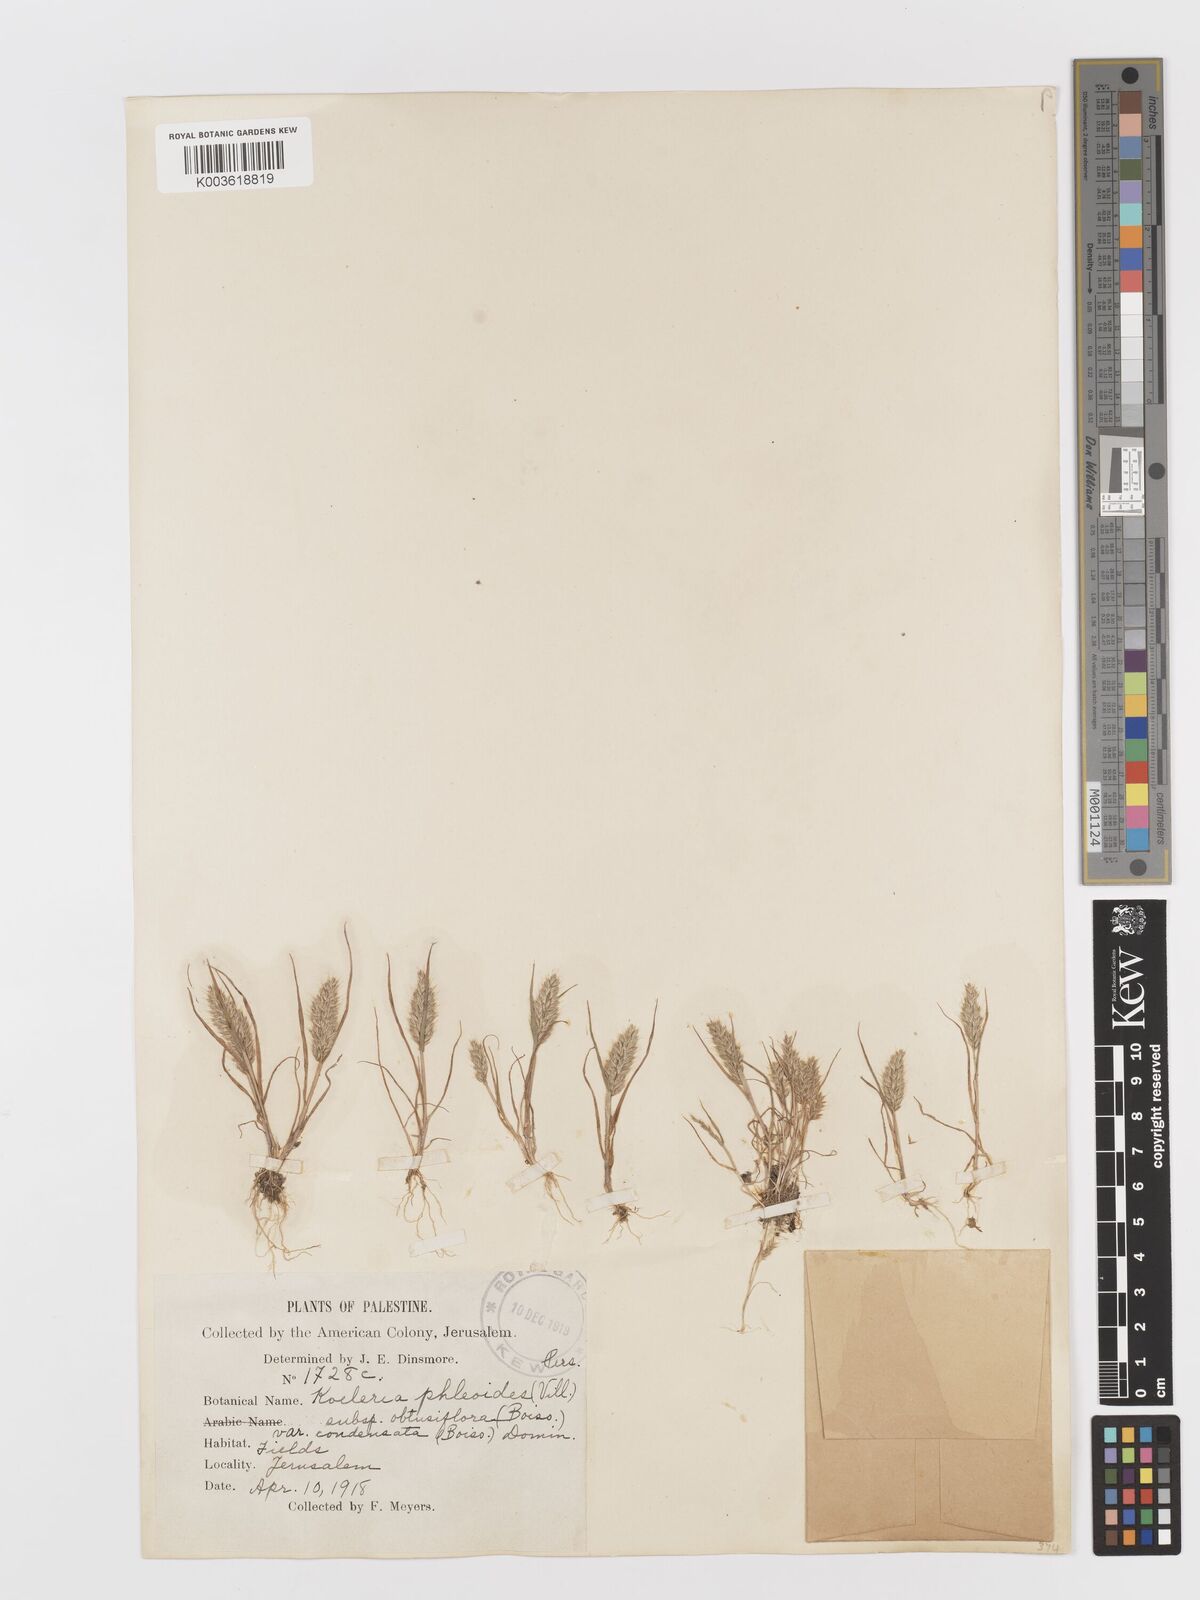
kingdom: Plantae
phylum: Tracheophyta
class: Liliopsida
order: Poales
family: Poaceae
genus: Rostraria
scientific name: Rostraria cristata
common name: Mediterranean hair-grass
